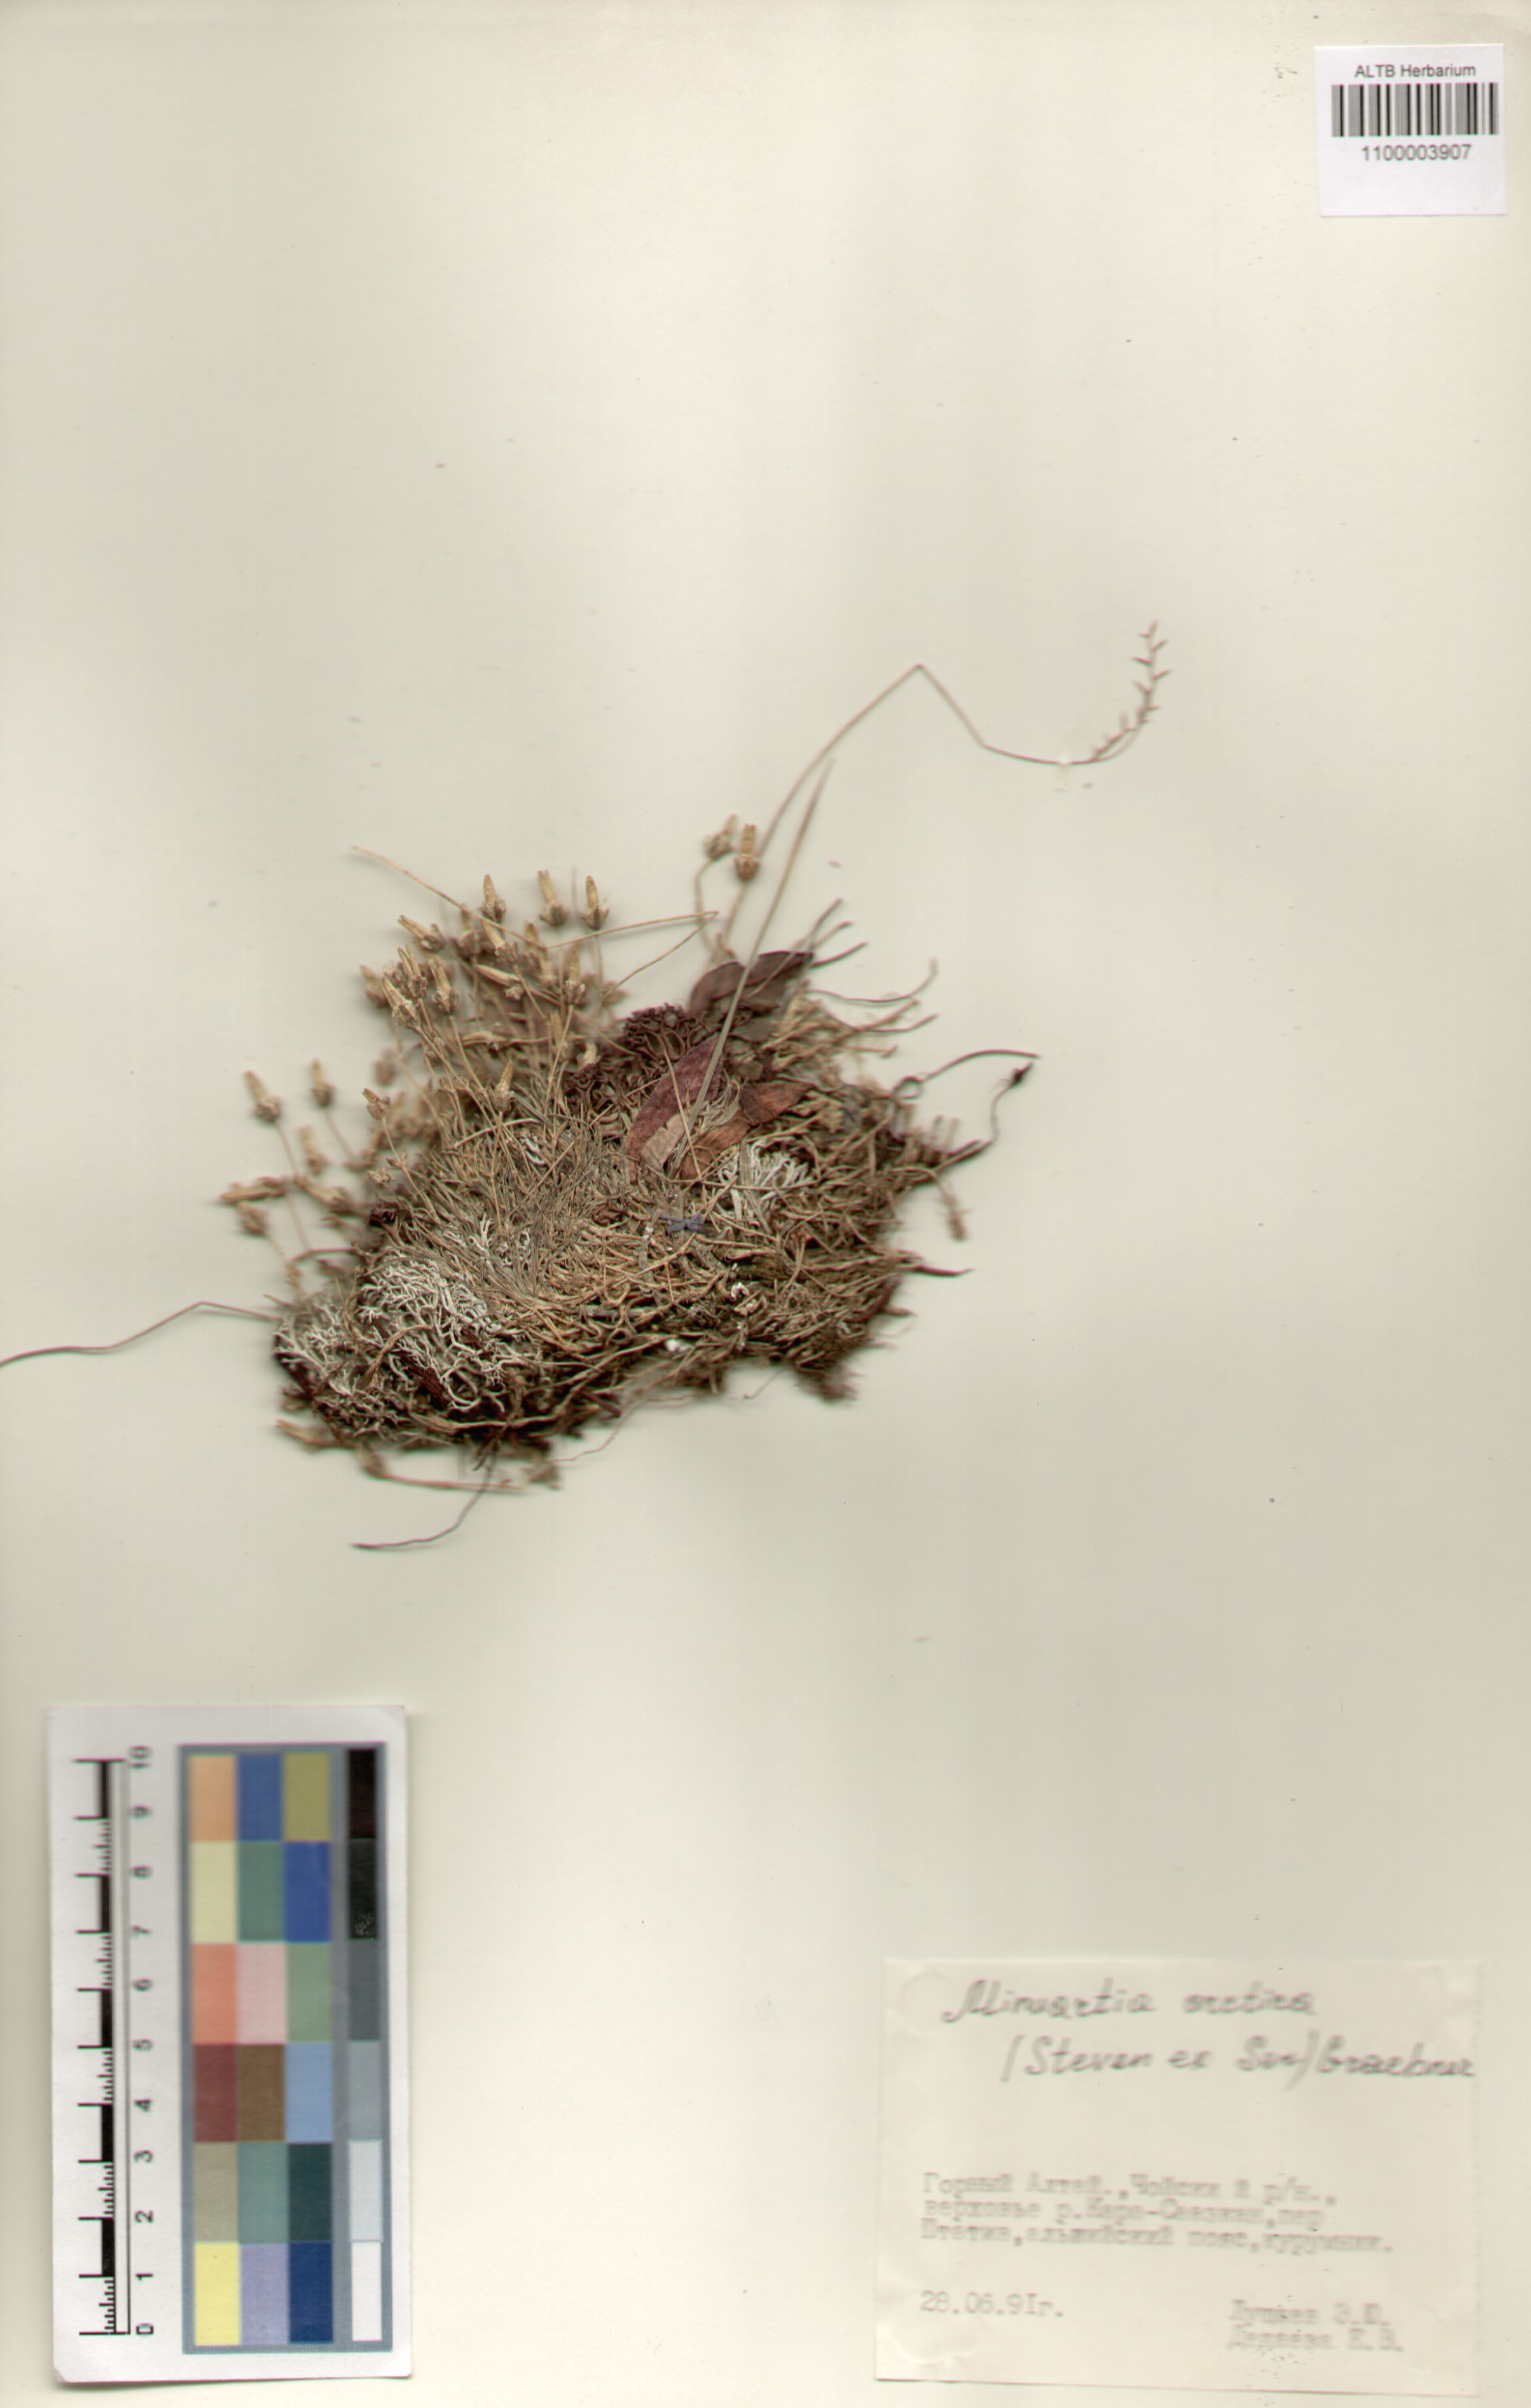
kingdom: Plantae
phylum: Tracheophyta
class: Magnoliopsida
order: Caryophyllales
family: Caryophyllaceae
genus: Cherleria
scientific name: Cherleria arctica
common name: Arctic sandwort
